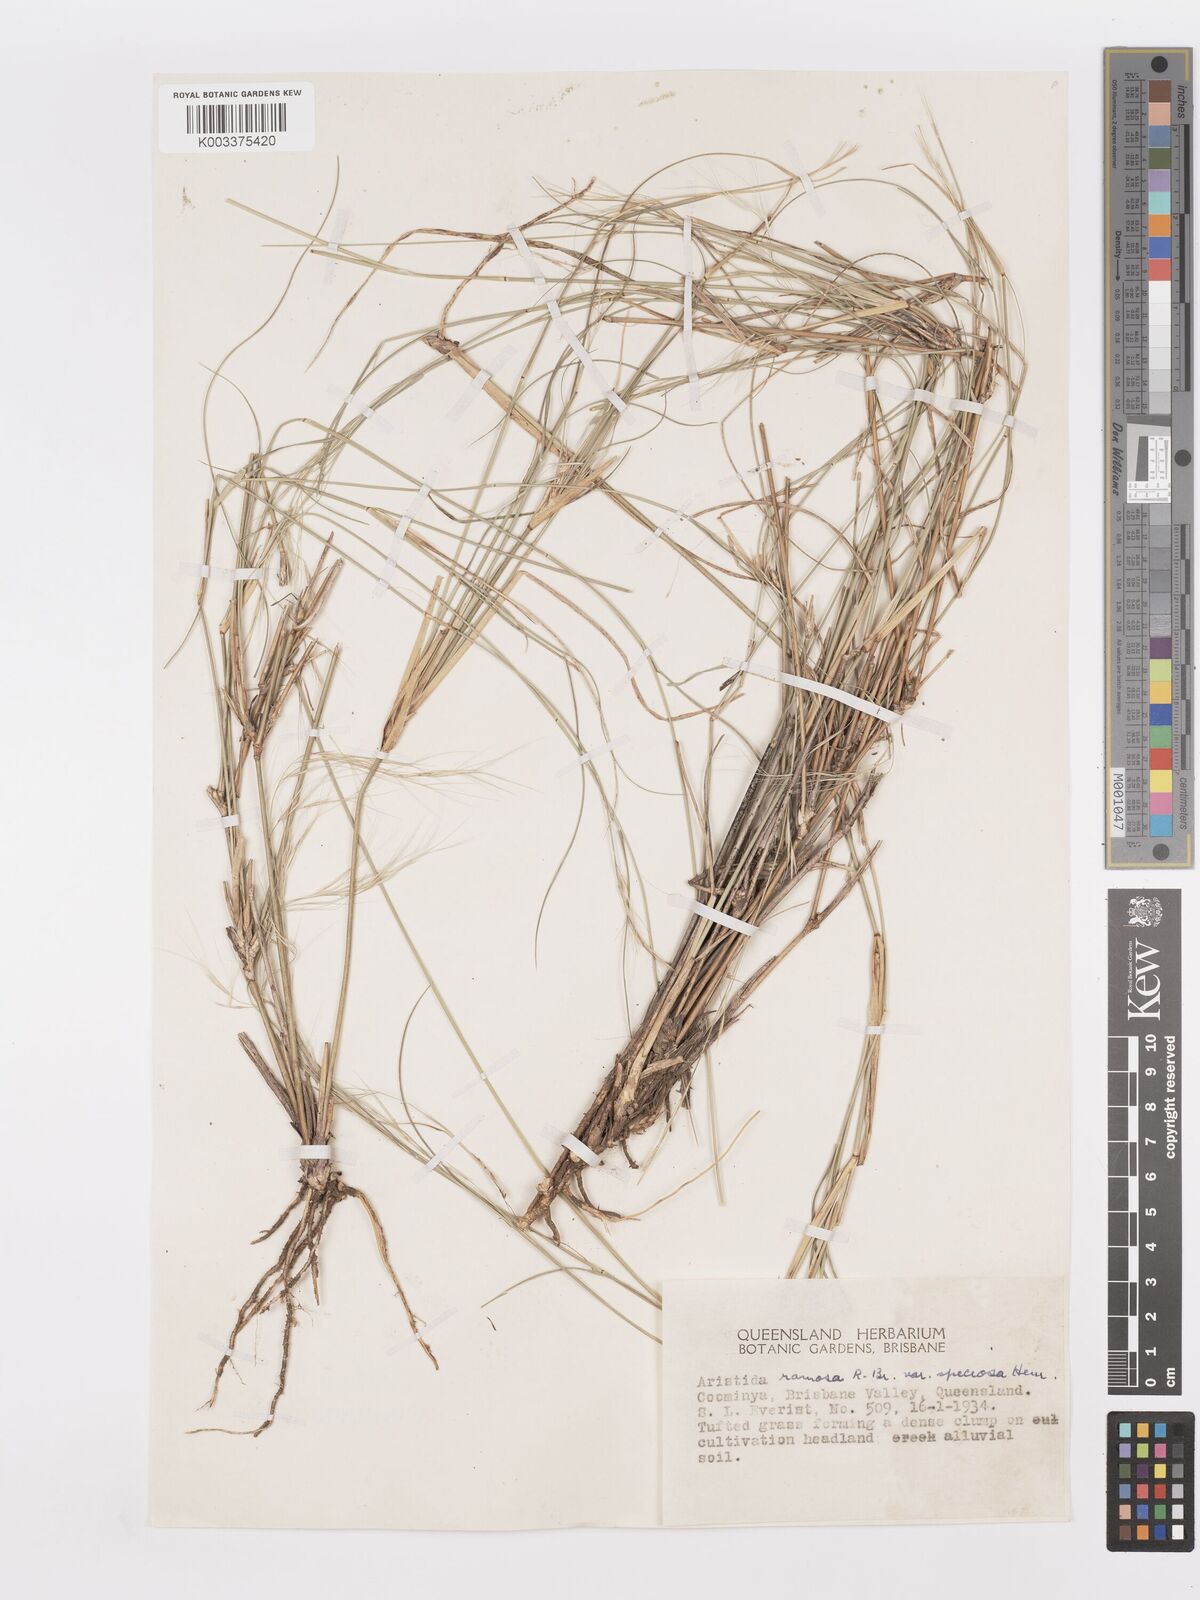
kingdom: Plantae
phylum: Tracheophyta
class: Liliopsida
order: Poales
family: Poaceae
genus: Aristida
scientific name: Aristida ramosa
